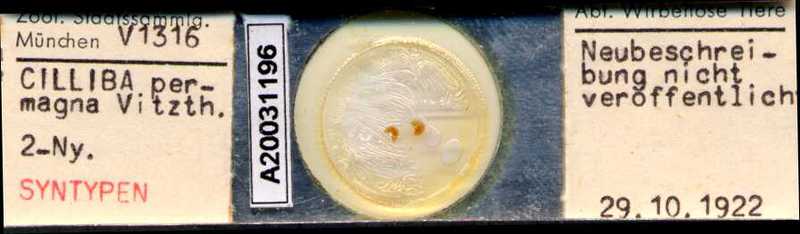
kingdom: Animalia
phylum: Arthropoda
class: Arachnida
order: Mesostigmata
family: Uropodidae
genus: Cilliba
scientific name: Cilliba
